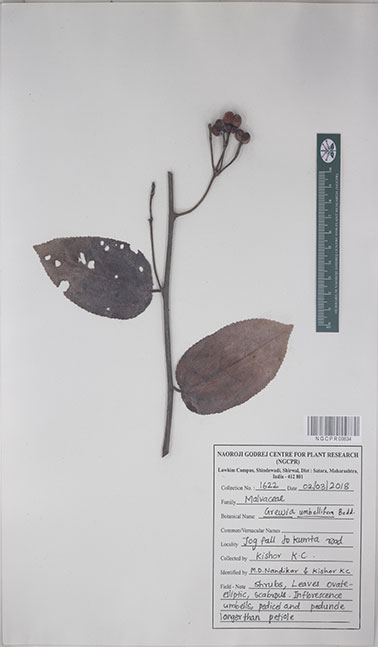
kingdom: Plantae
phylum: Tracheophyta
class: Magnoliopsida
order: Malvales
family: Malvaceae
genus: Grewia
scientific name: Grewia umbellifera
